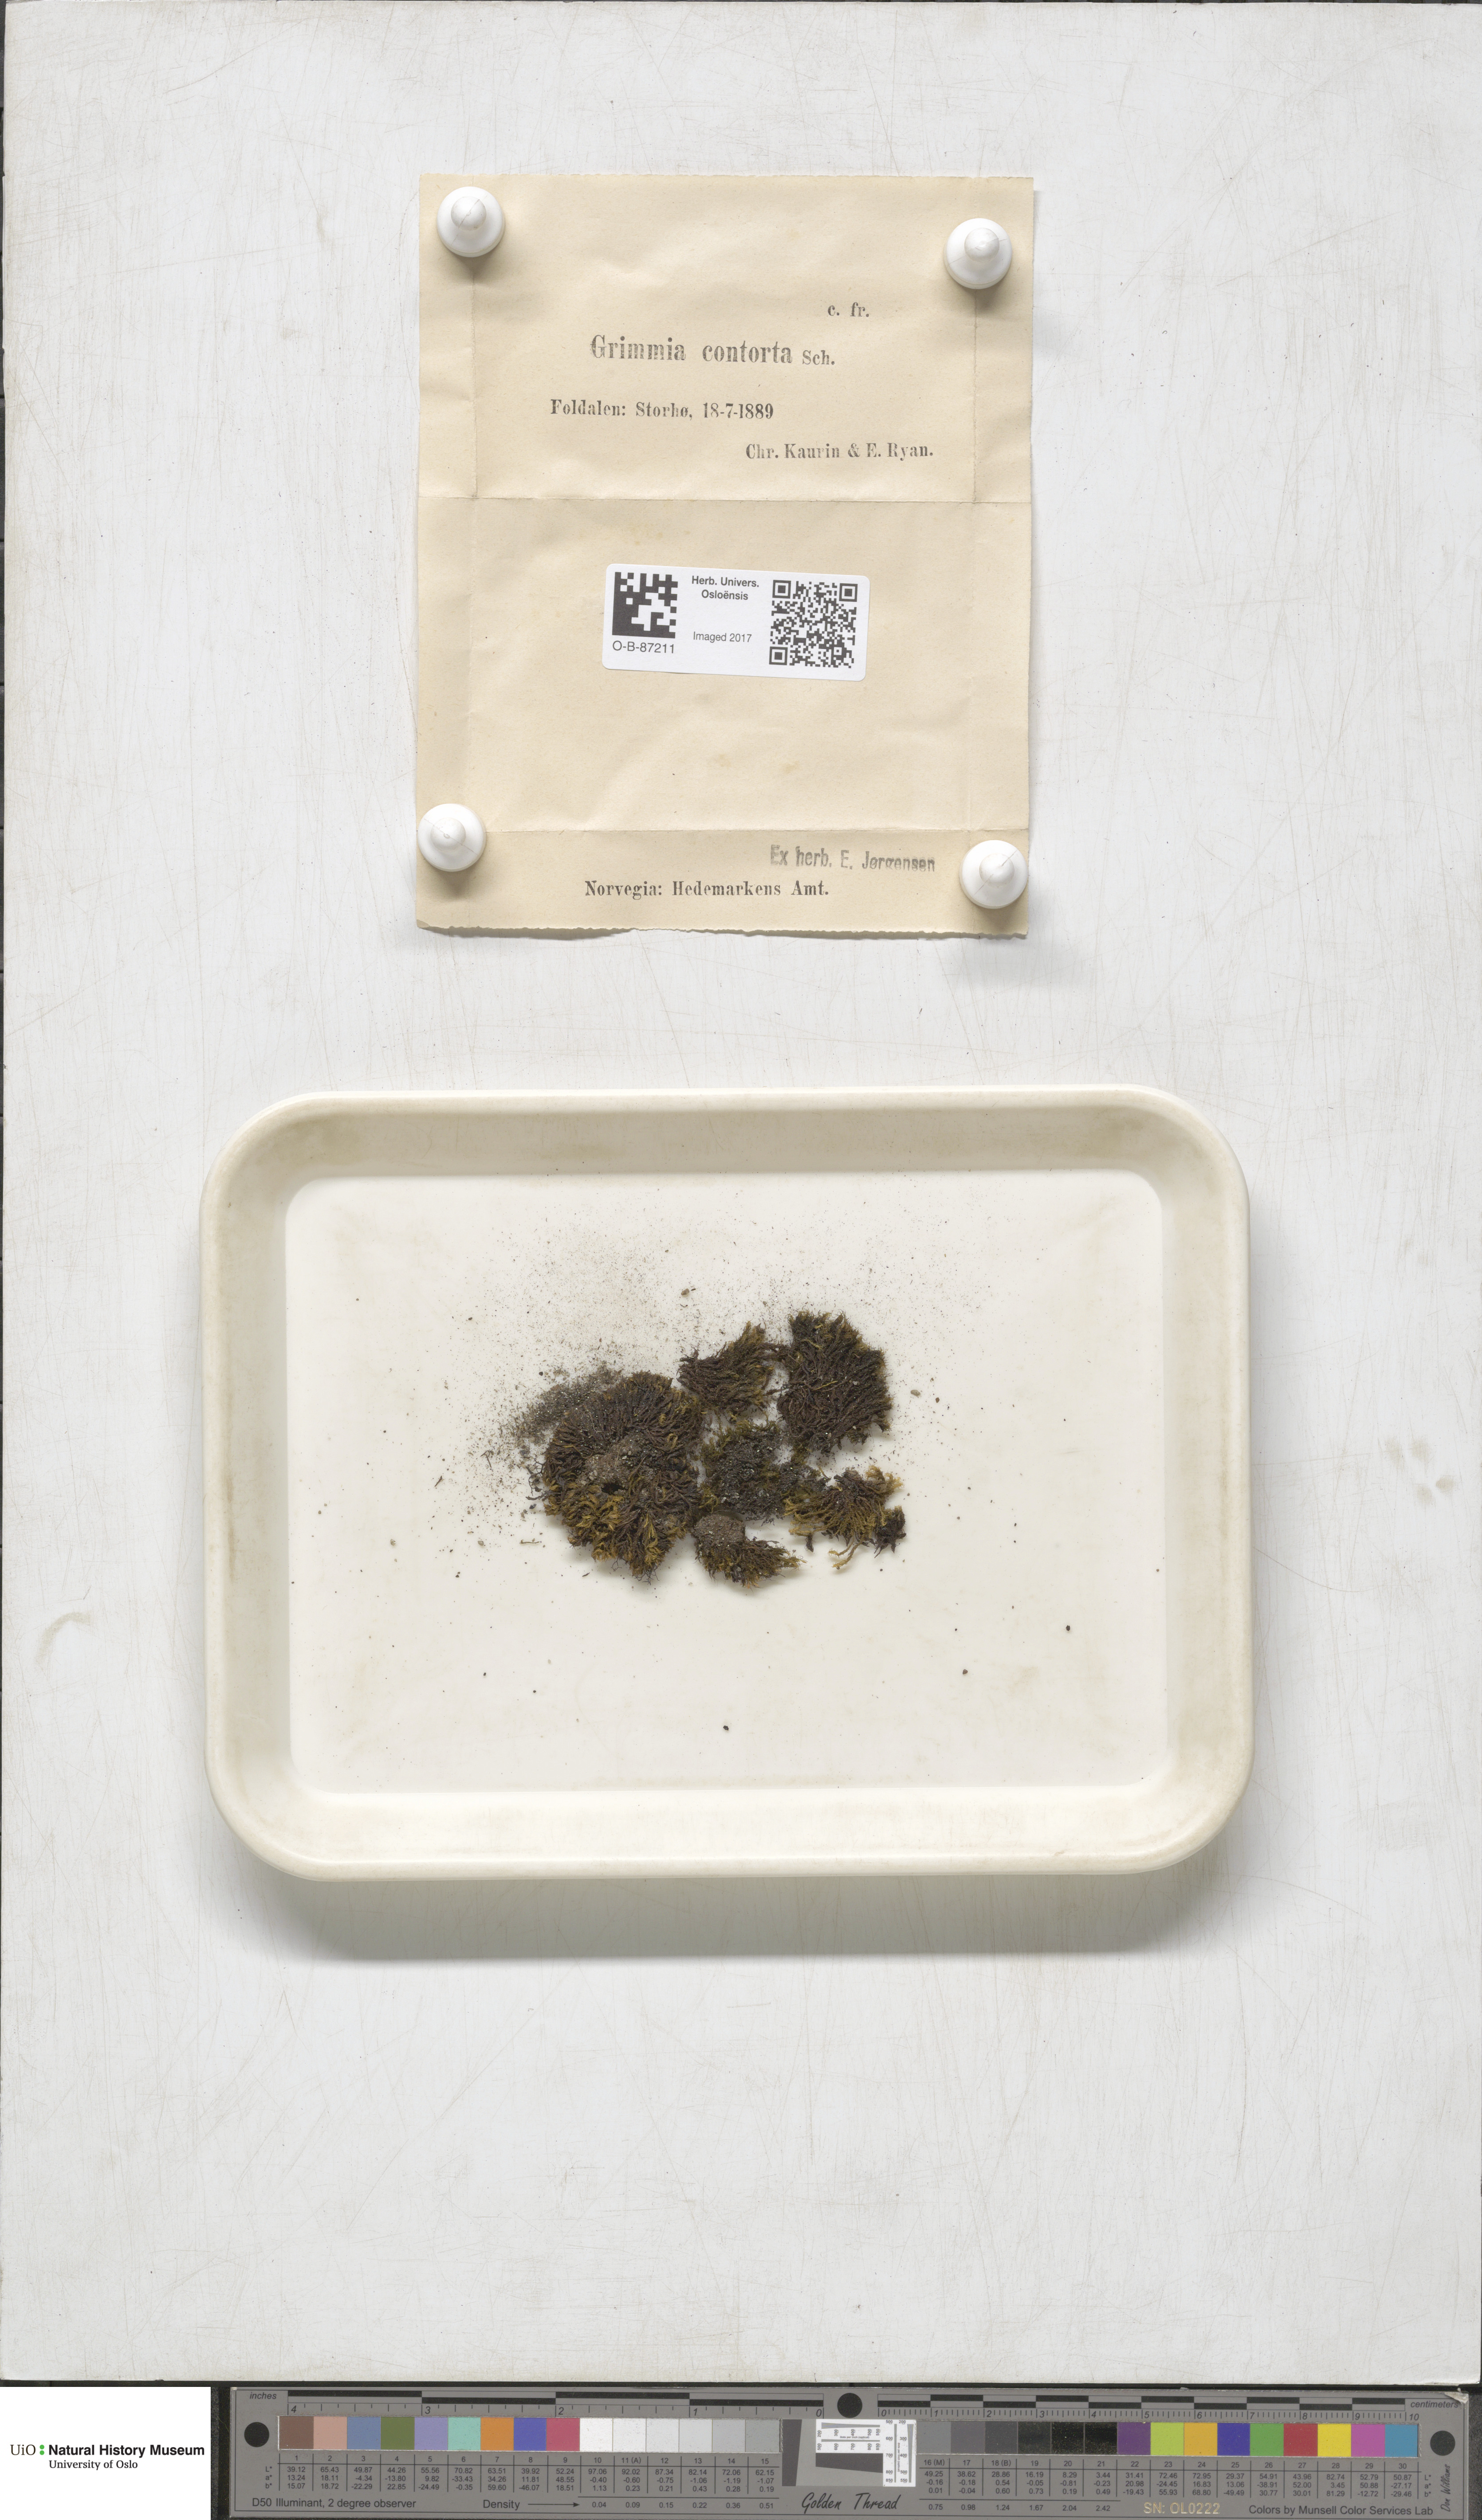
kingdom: Plantae
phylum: Bryophyta
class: Bryopsida
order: Grimmiales
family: Grimmiaceae
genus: Grimmia
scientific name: Grimmia incurva
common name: Black grimmia
